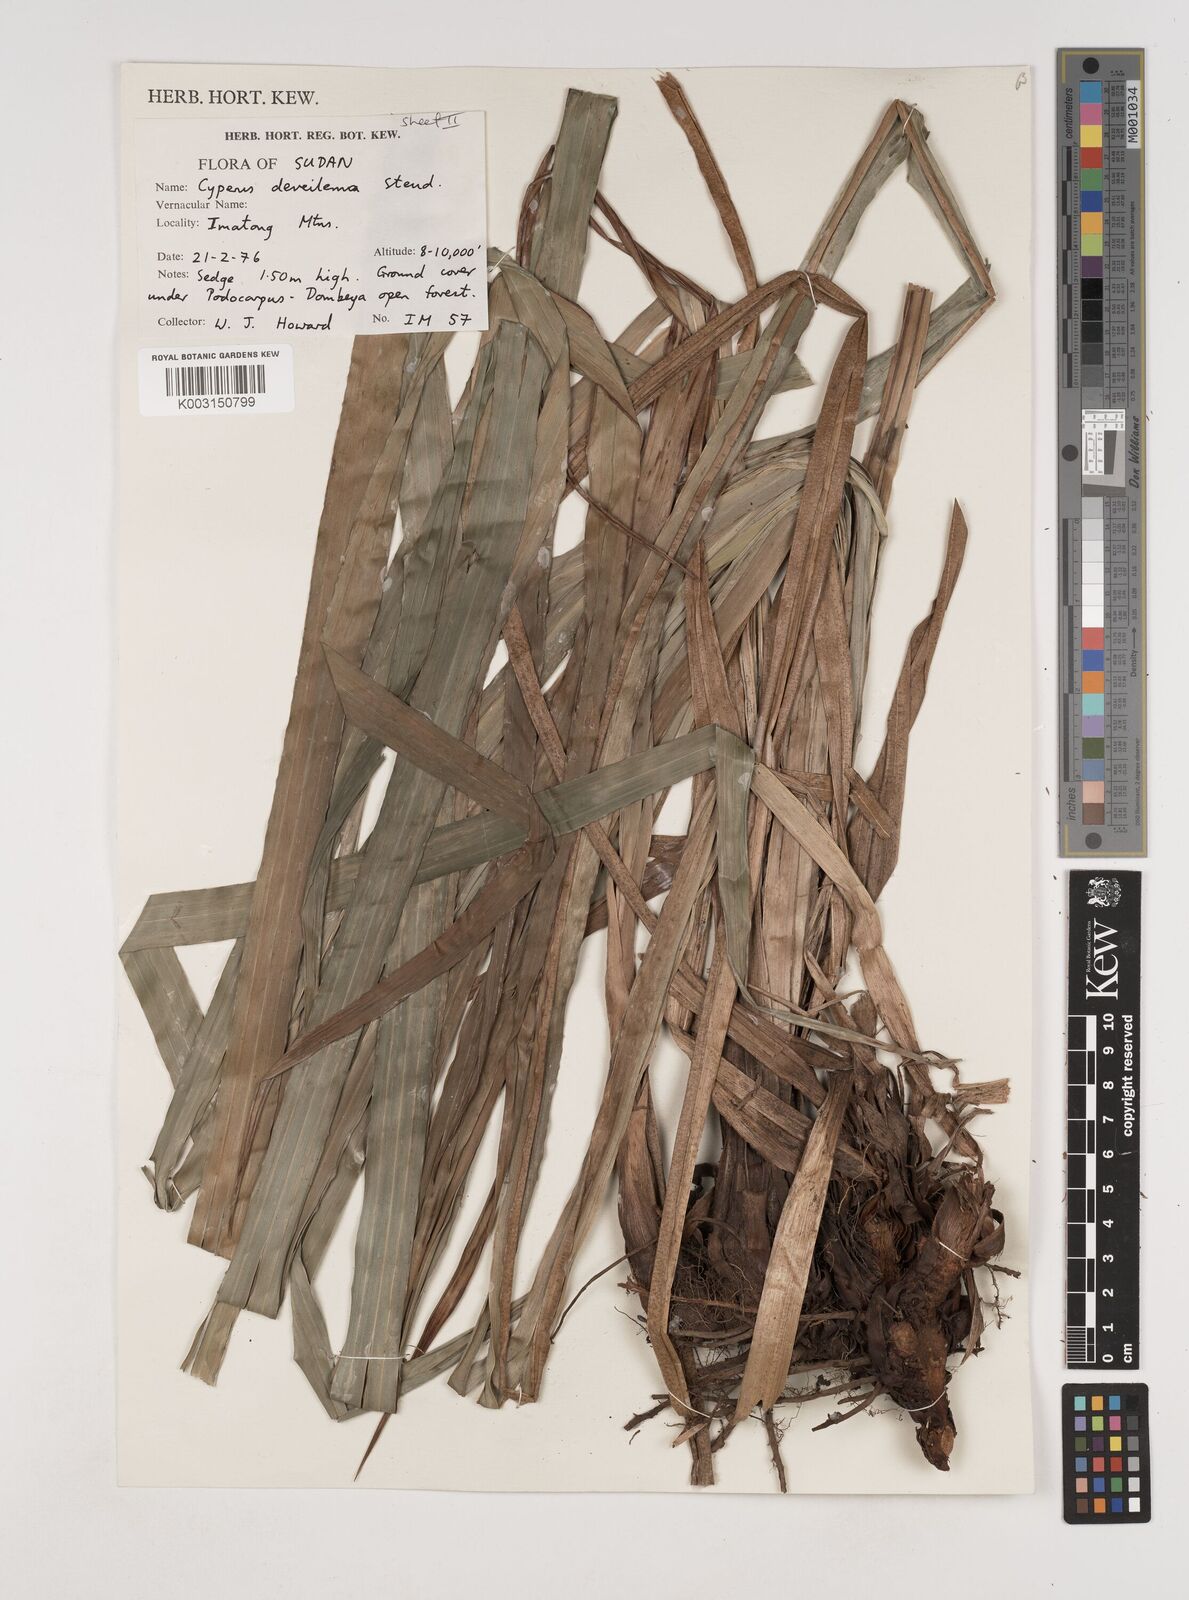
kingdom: Plantae
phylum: Tracheophyta
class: Liliopsida
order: Poales
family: Cyperaceae
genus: Cyperus
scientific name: Cyperus derreilema
